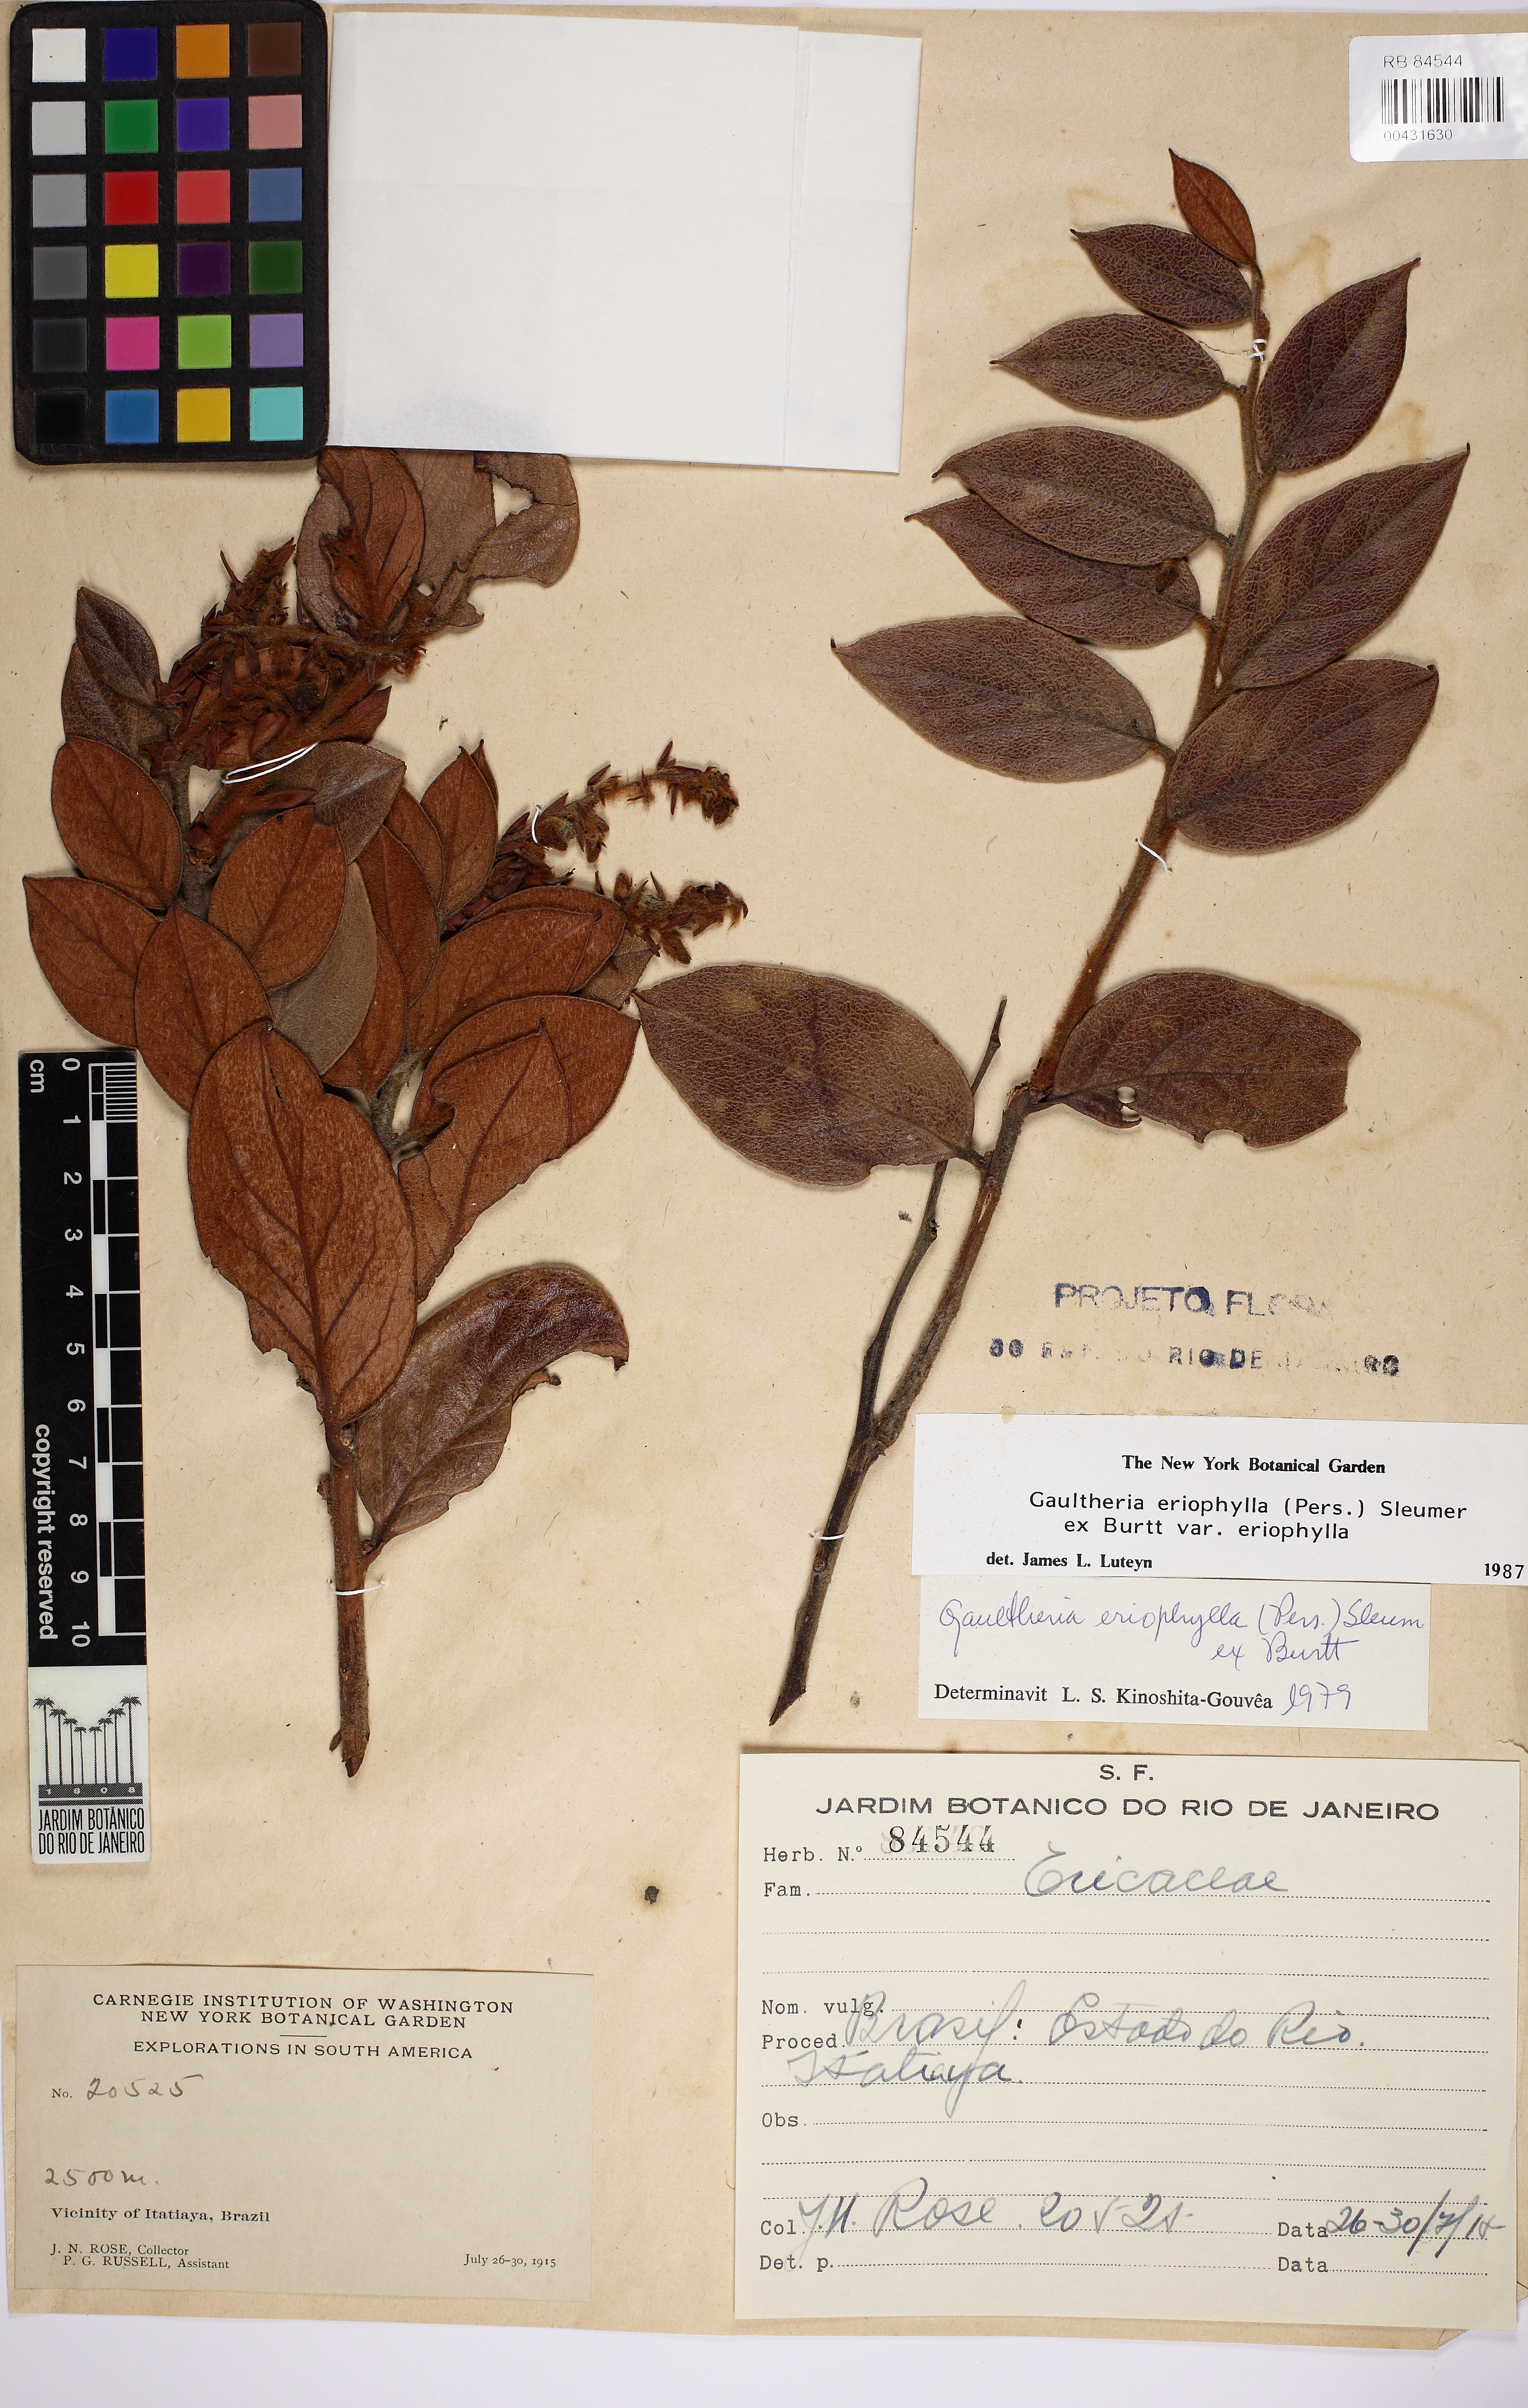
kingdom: Plantae
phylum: Tracheophyta
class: Magnoliopsida
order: Ericales
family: Ericaceae
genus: Gaultheria
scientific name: Gaultheria eriophylla
